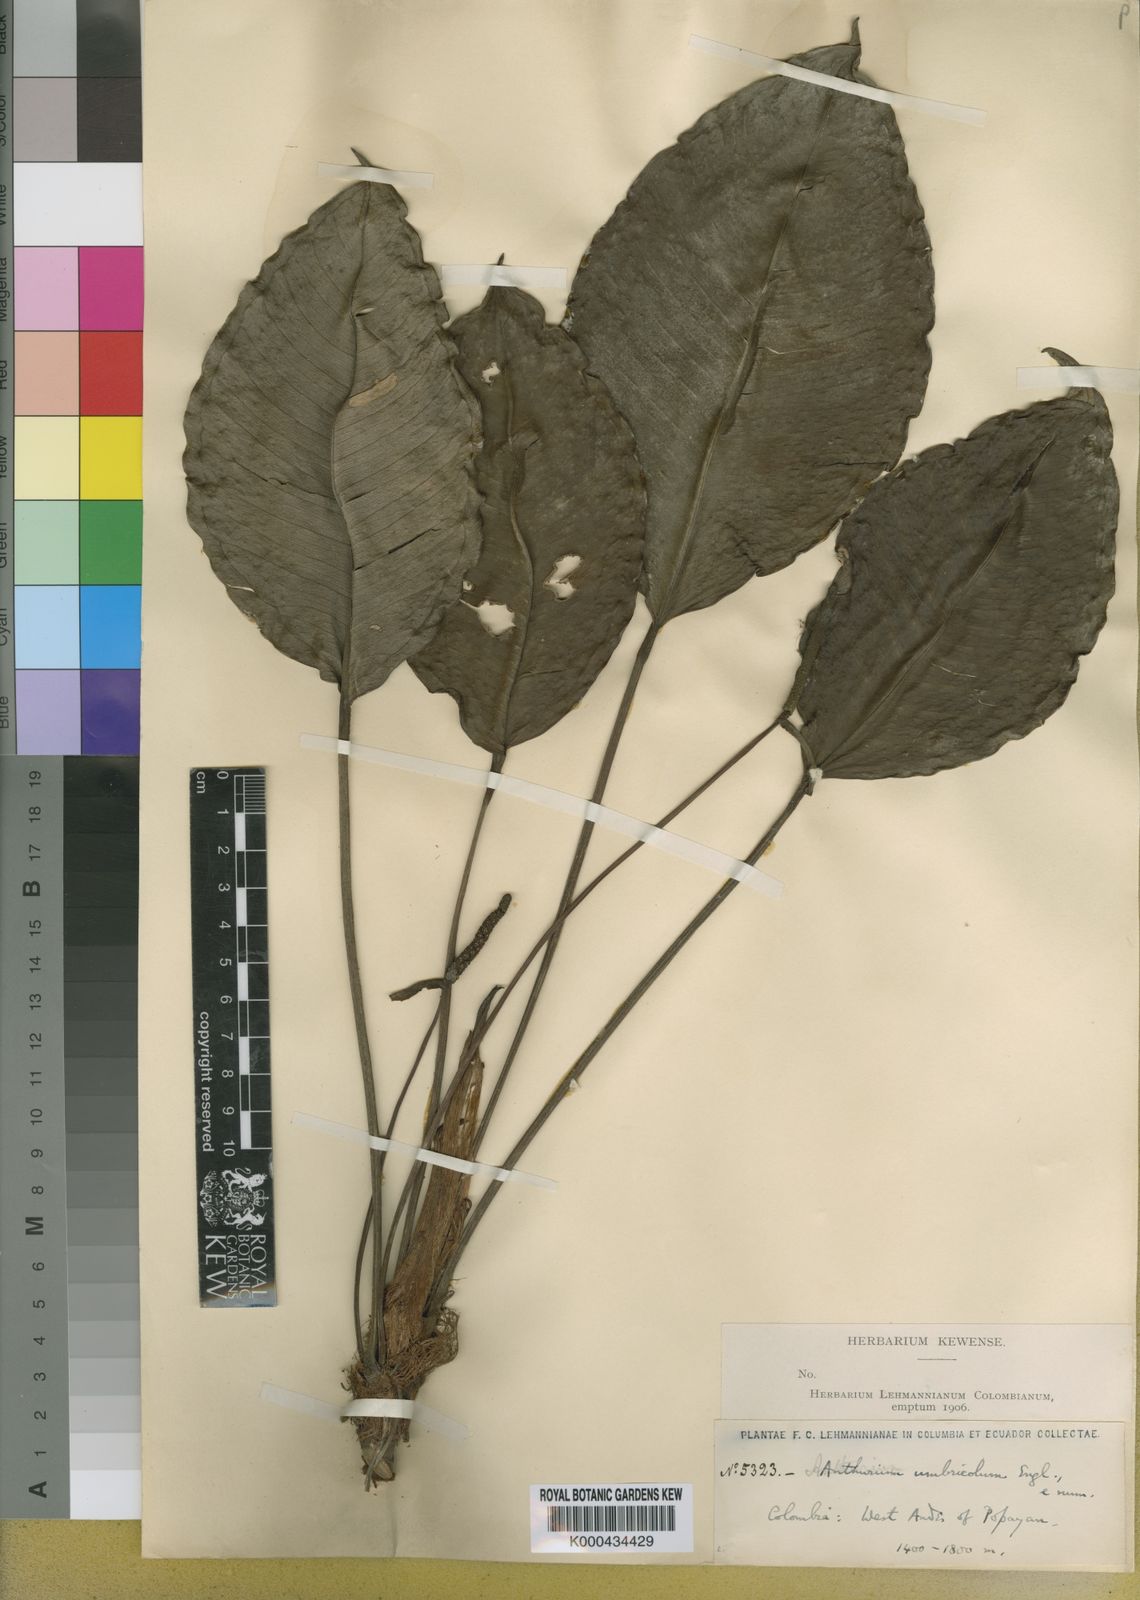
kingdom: Plantae
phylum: Tracheophyta
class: Liliopsida
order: Alismatales
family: Araceae
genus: Anthurium
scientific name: Anthurium umbricola
